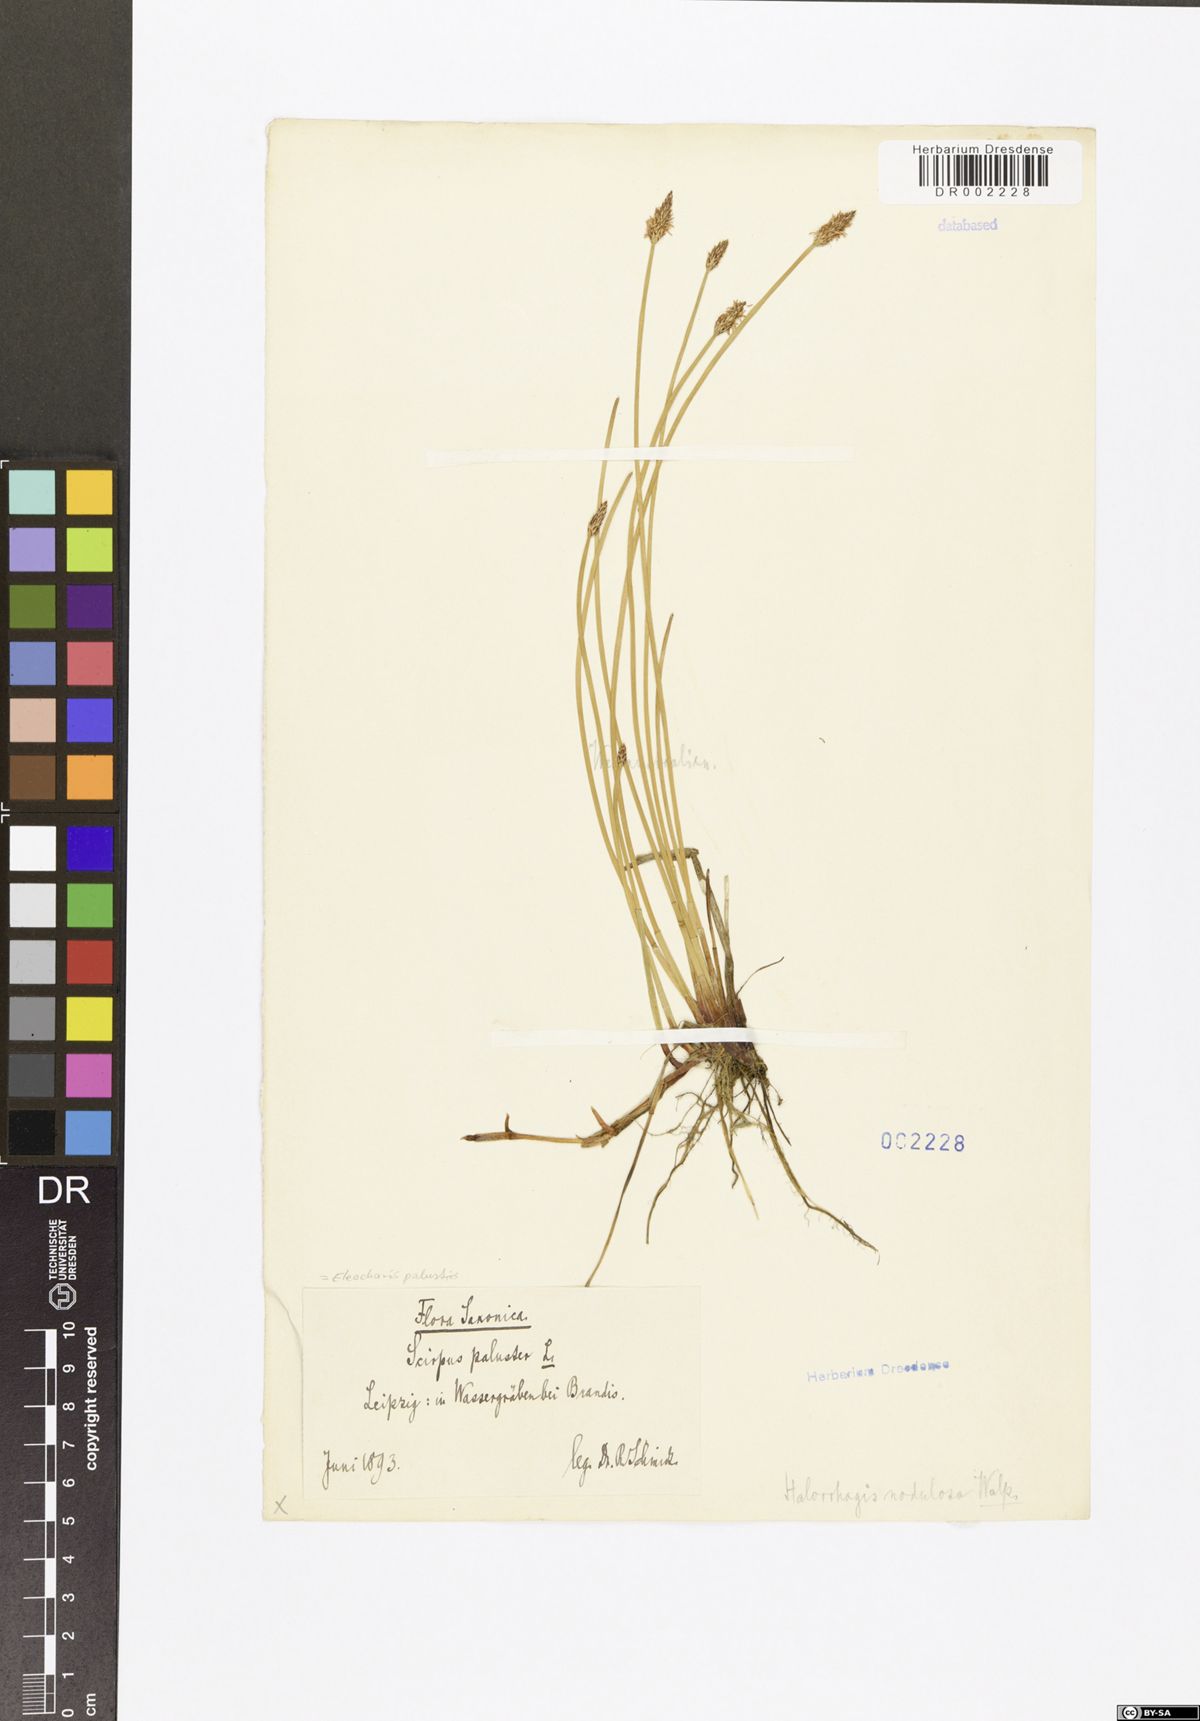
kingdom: Plantae
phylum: Tracheophyta
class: Liliopsida
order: Poales
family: Cyperaceae
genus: Eleocharis
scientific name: Eleocharis palustris
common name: Common spike-rush
